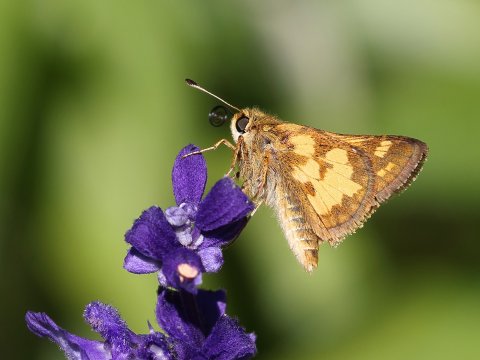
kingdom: Animalia
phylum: Arthropoda
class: Insecta
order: Lepidoptera
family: Hesperiidae
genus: Polites
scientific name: Polites coras
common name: Peck's Skipper
